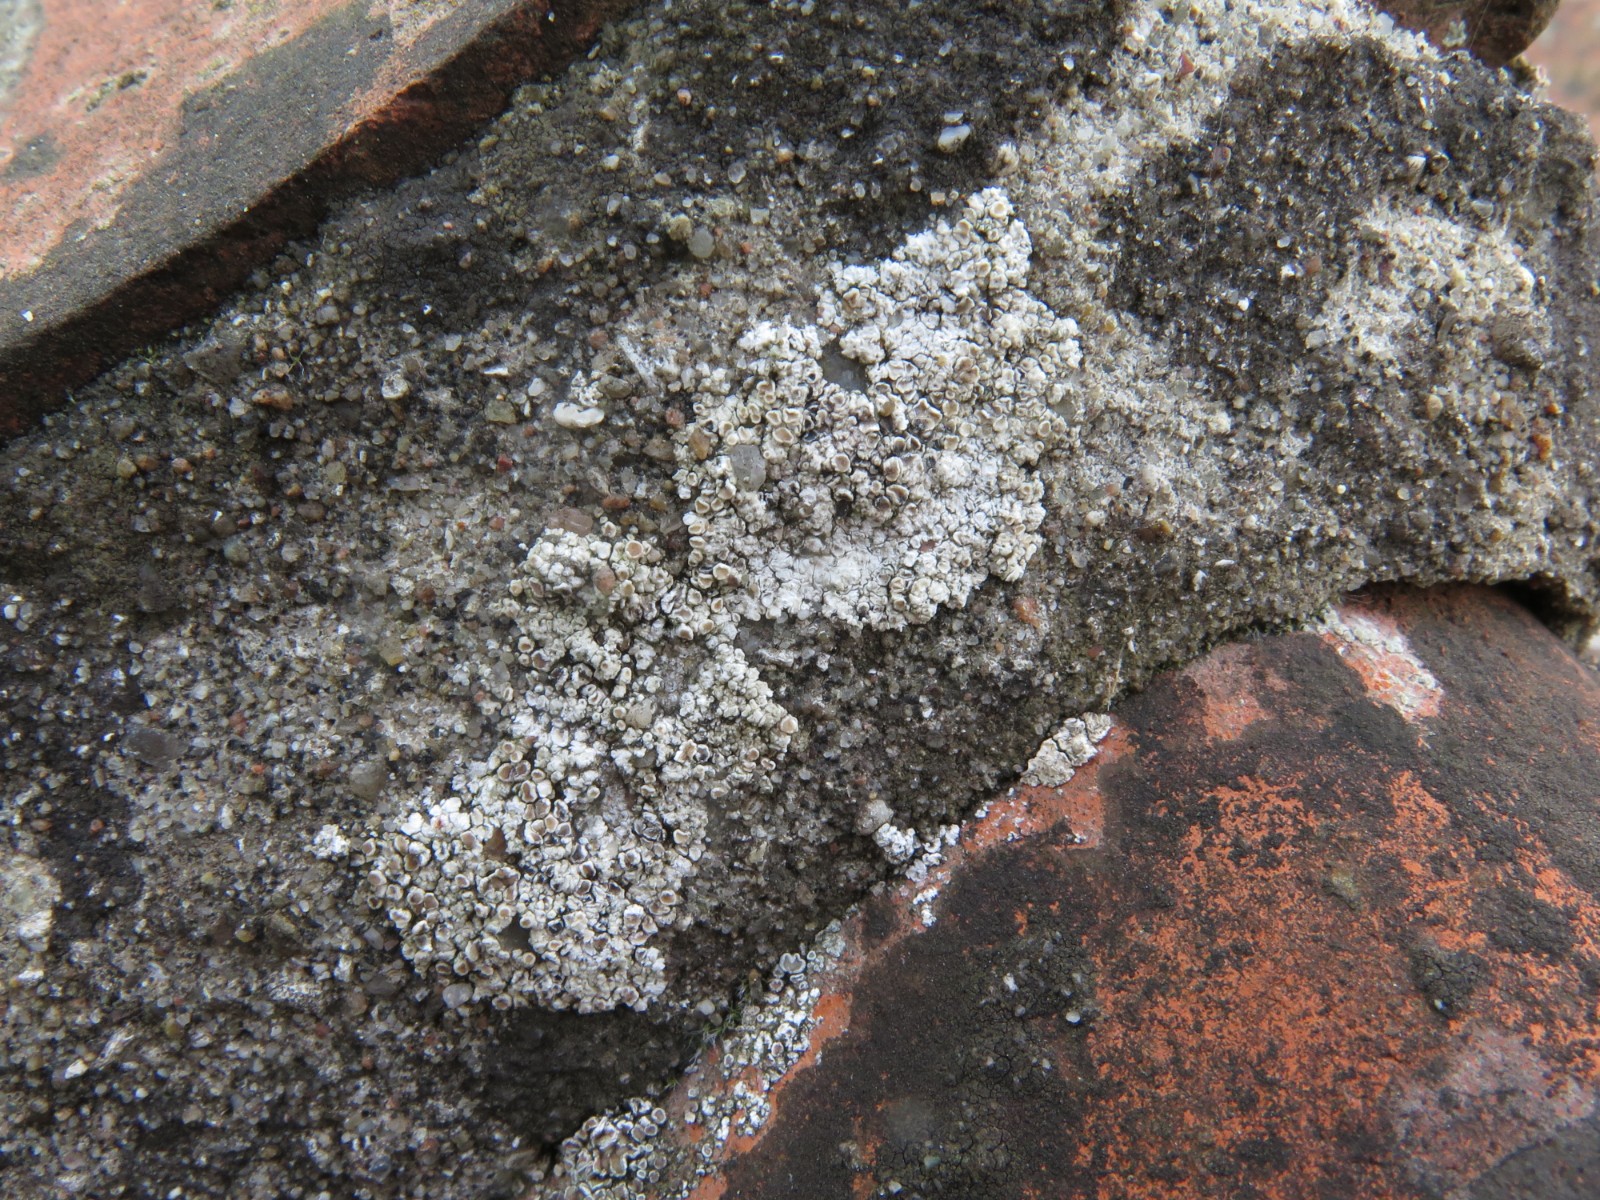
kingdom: Fungi
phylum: Ascomycota
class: Lecanoromycetes
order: Lecanorales
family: Lecanoraceae
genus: Polyozosia
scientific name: Polyozosia albescens
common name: cement-kantskivelav
